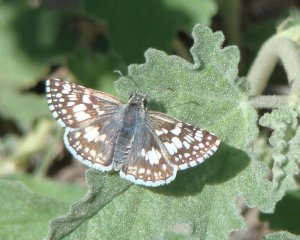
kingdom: Animalia
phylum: Arthropoda
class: Insecta
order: Lepidoptera
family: Hesperiidae
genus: Pyrgus
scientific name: Pyrgus communis
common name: Common Checkered-Skipper
